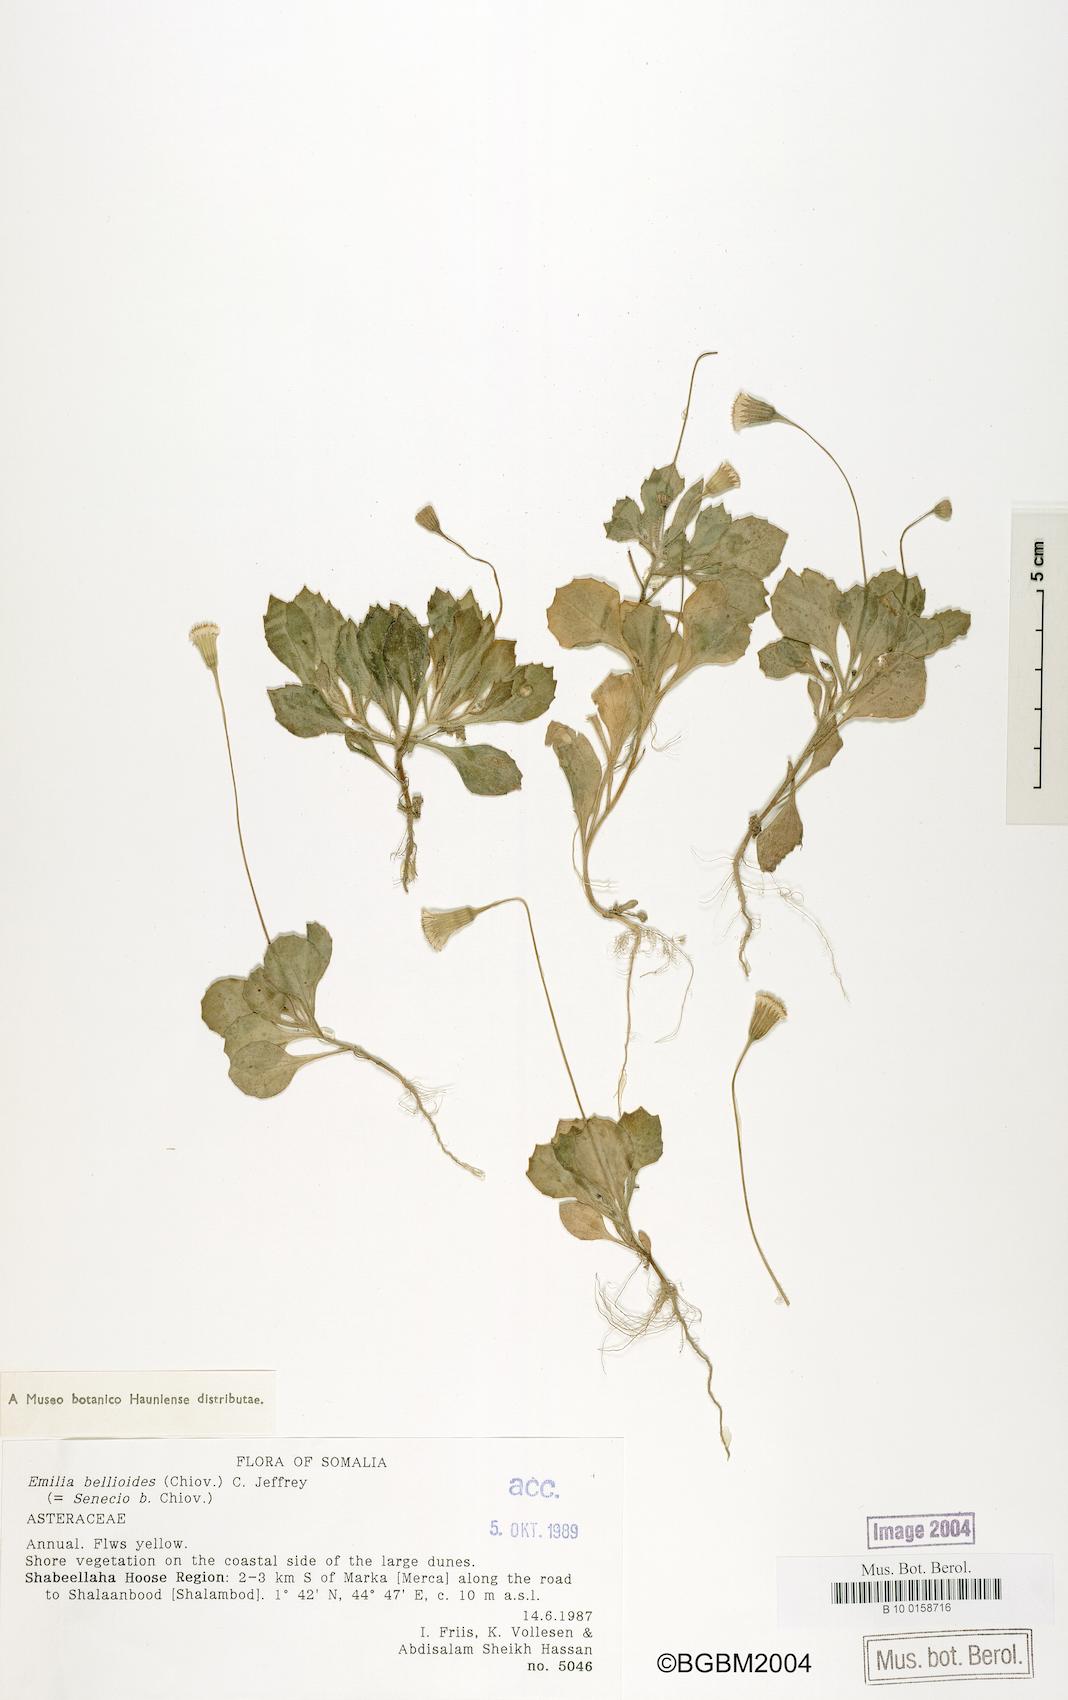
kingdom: Plantae
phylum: Tracheophyta
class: Magnoliopsida
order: Asterales
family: Asteraceae
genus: Emilia
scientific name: Emilia bellioides
